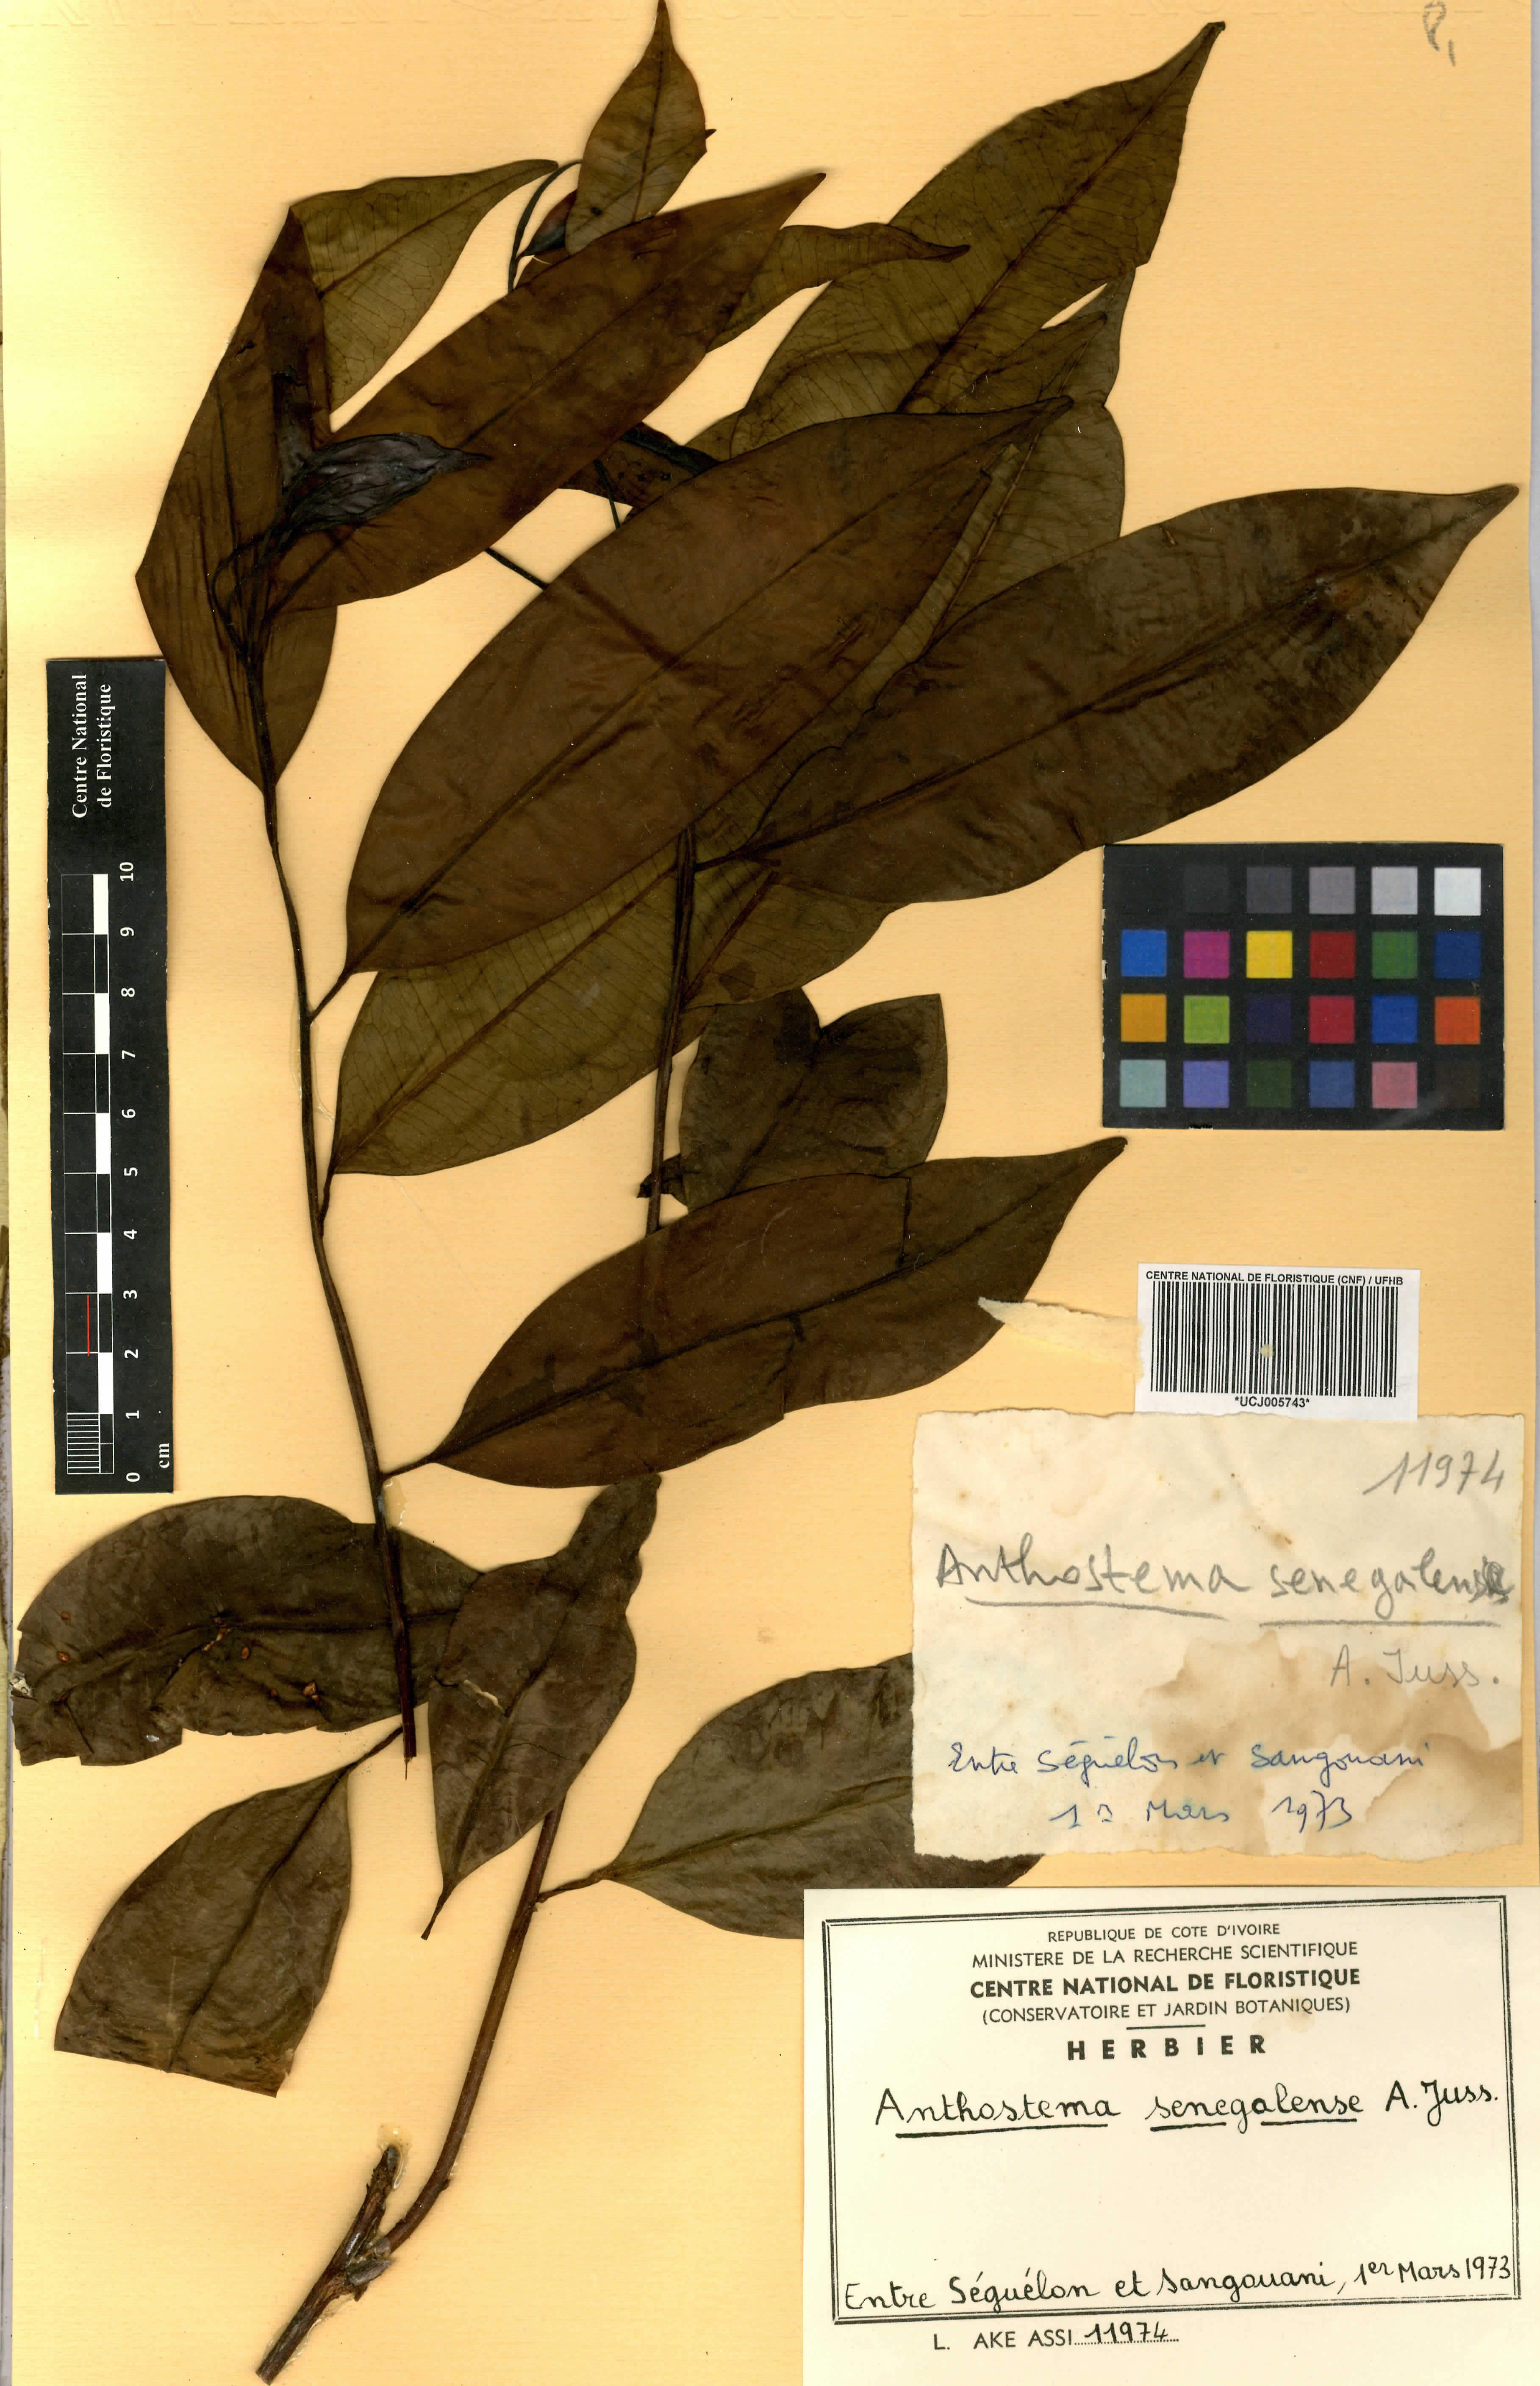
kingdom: Plantae
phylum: Tracheophyta
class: Magnoliopsida
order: Malpighiales
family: Euphorbiaceae
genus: Anthostema
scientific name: Anthostema senegalense
